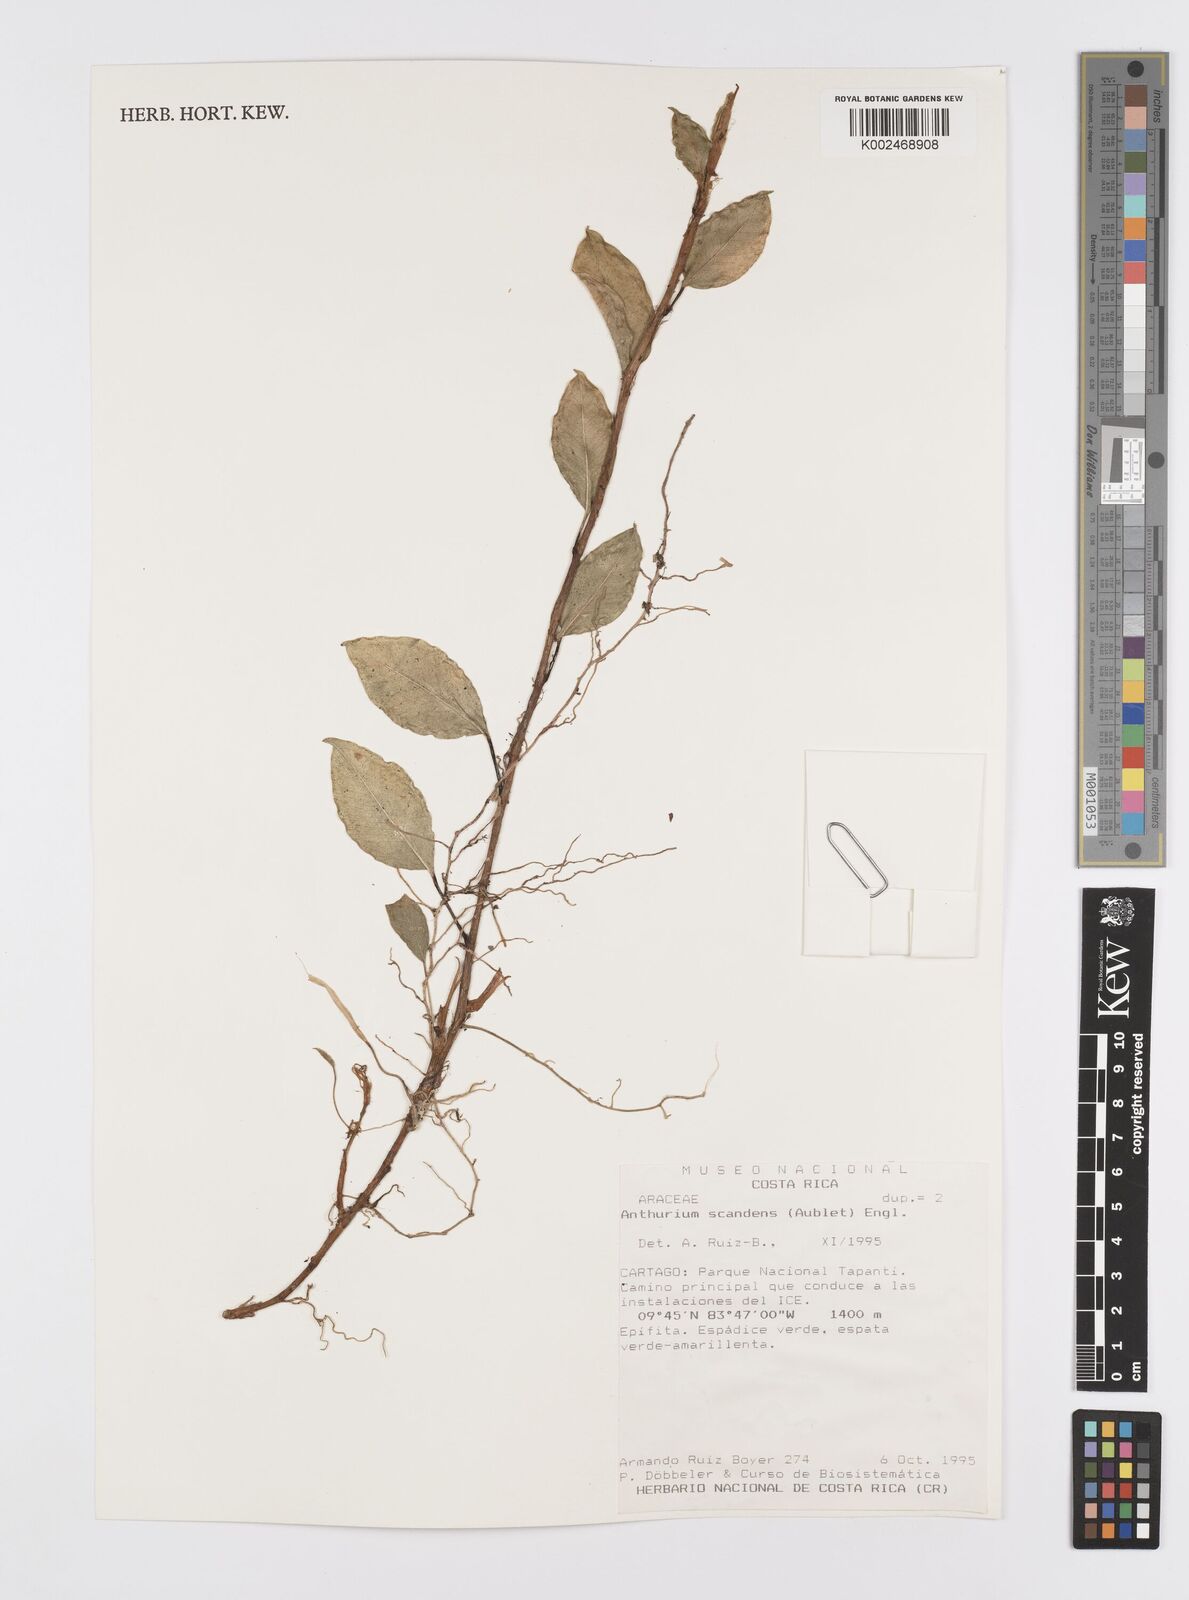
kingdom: Plantae
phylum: Tracheophyta
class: Liliopsida
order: Alismatales
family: Araceae
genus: Anthurium
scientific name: Anthurium scandens
